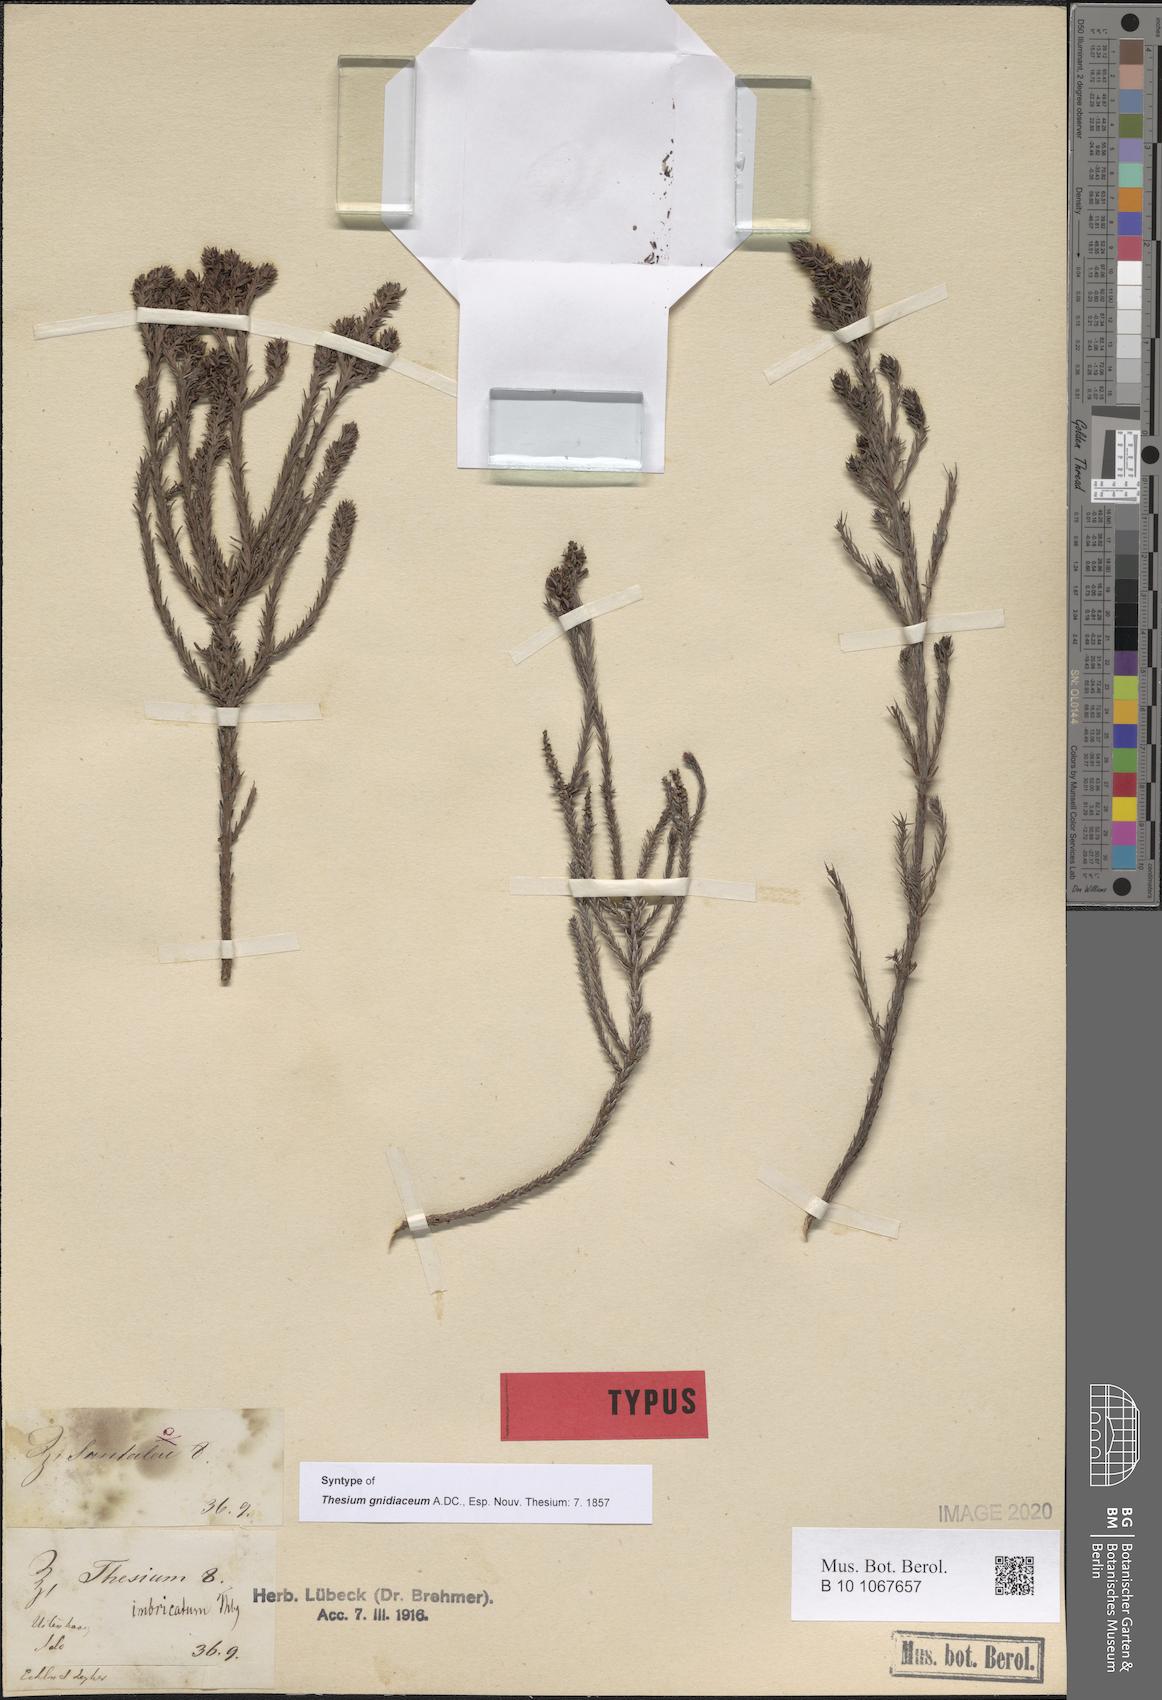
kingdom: Plantae
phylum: Tracheophyta
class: Magnoliopsida
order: Santalales
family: Thesiaceae
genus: Thesium
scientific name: Thesium gnidiaceum
